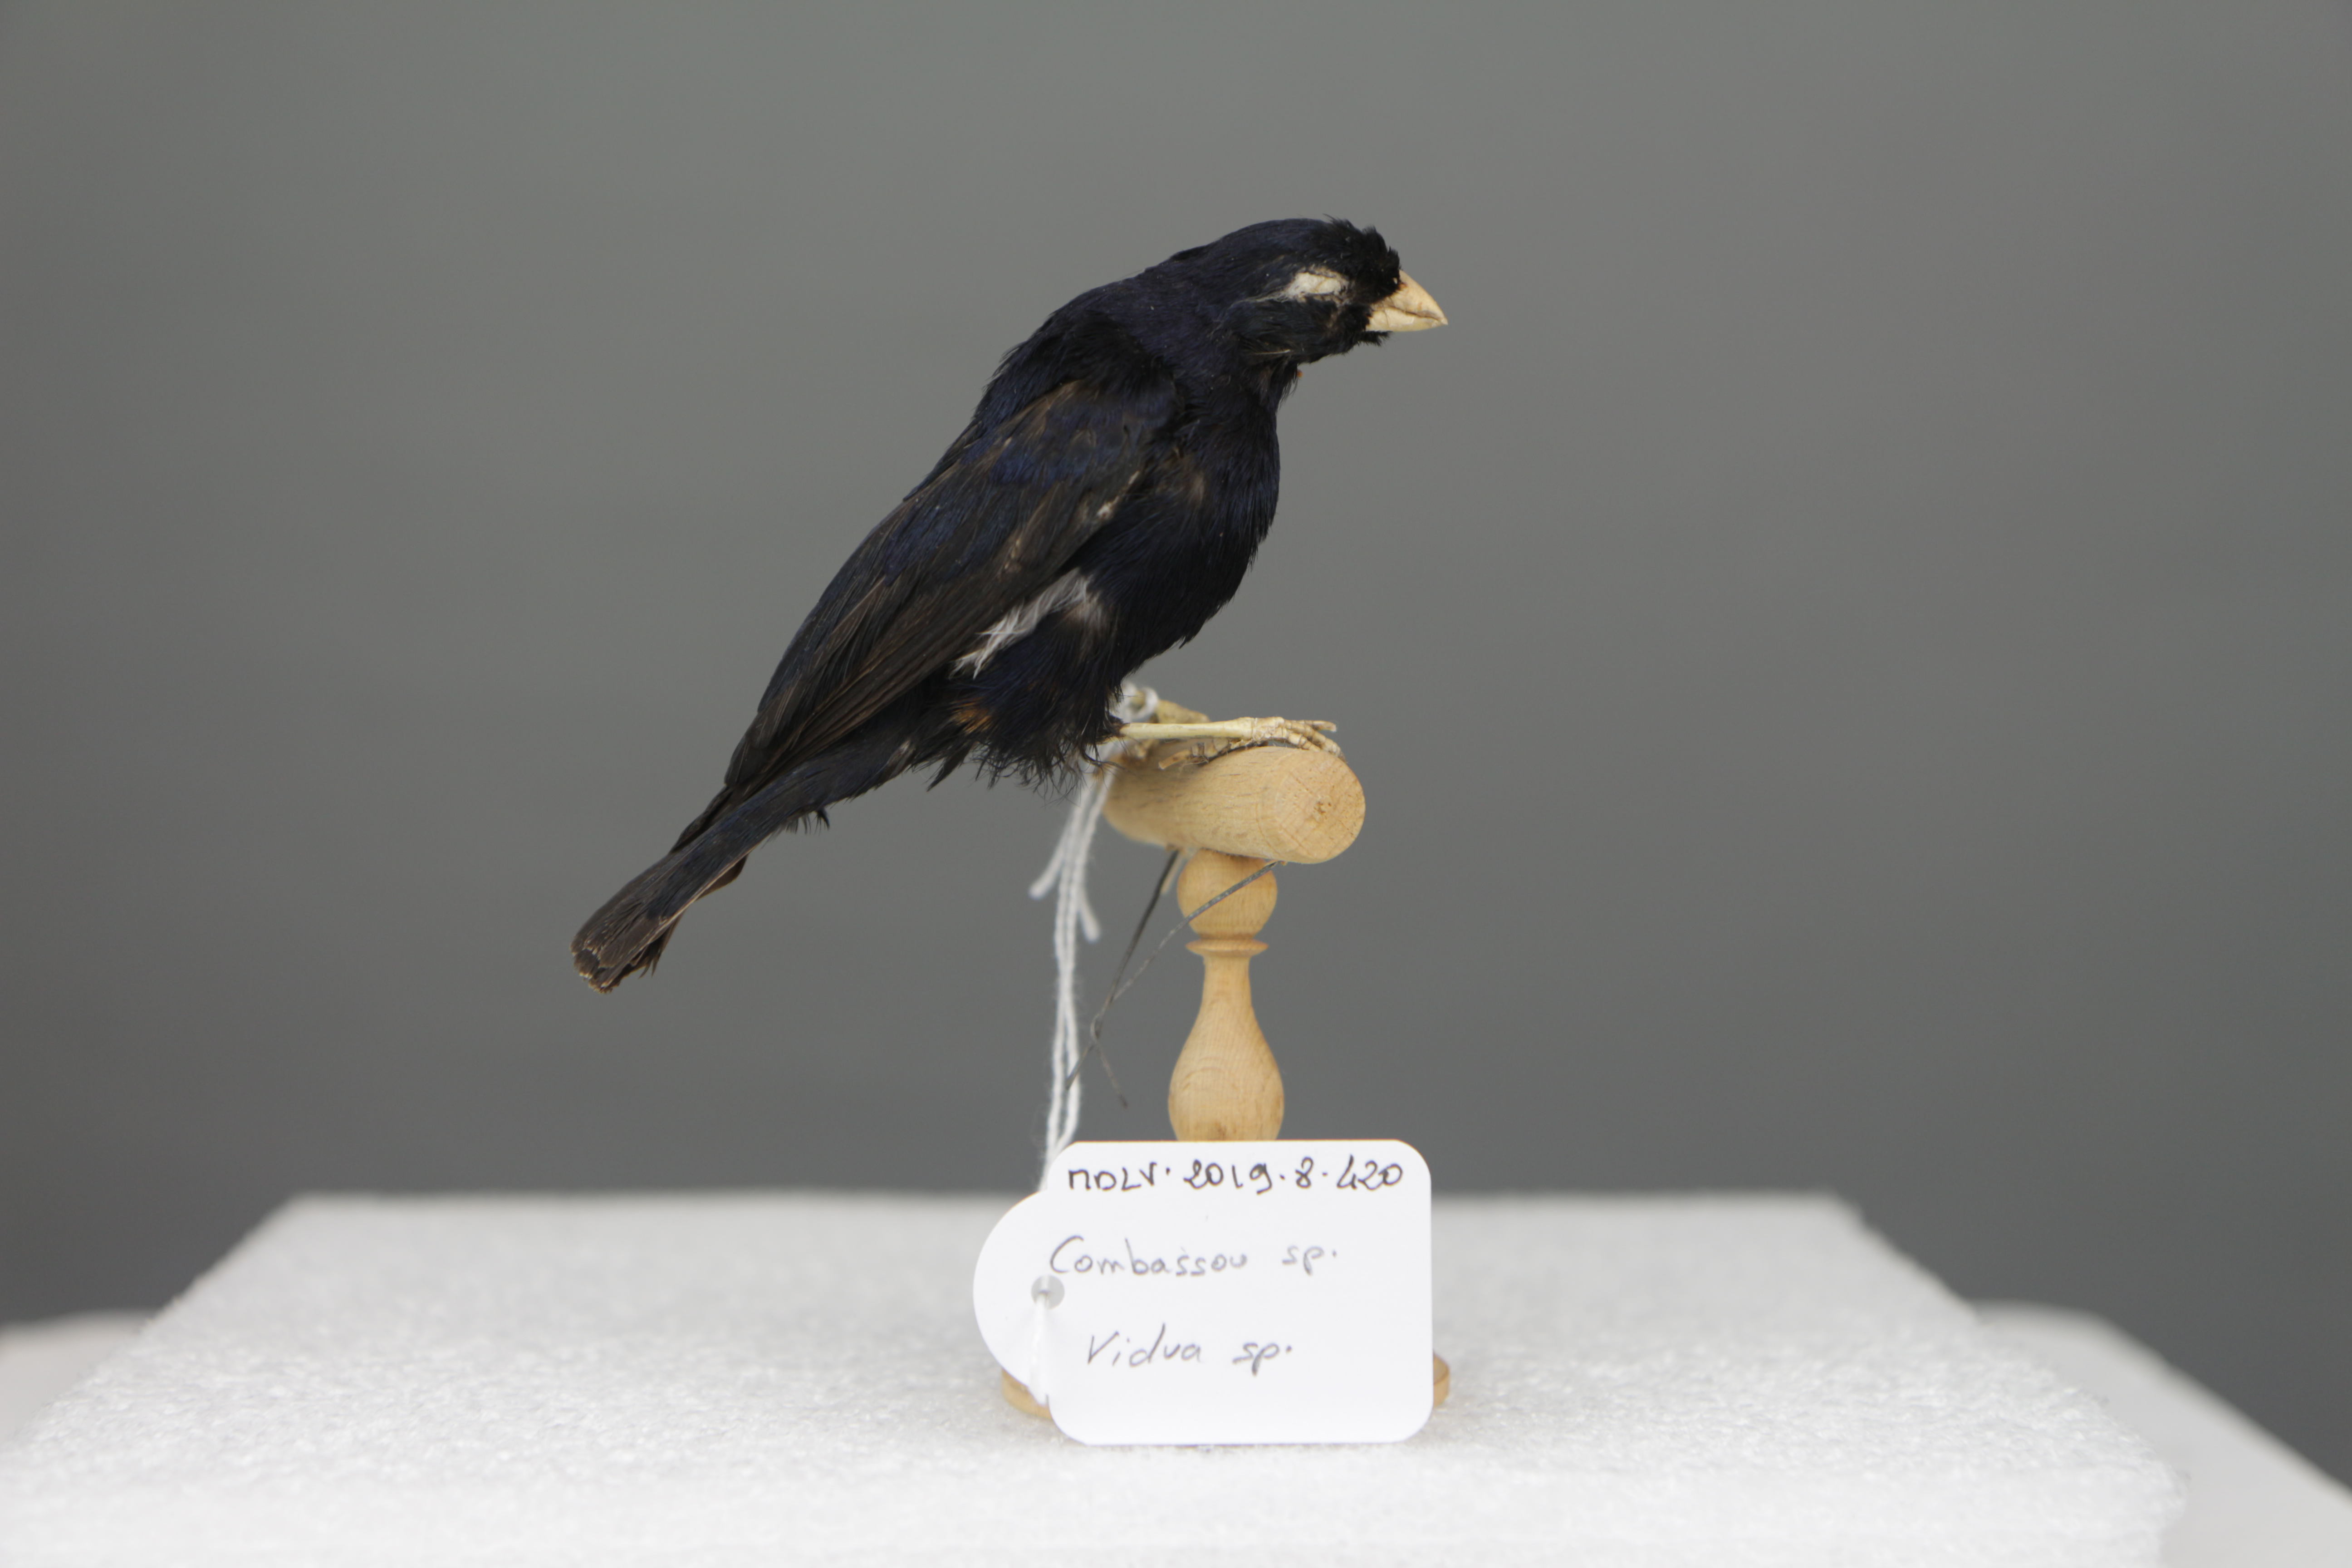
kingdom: Animalia
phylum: Chordata
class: Aves
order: Passeriformes
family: Viduidae
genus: Vidua
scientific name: Vidua
